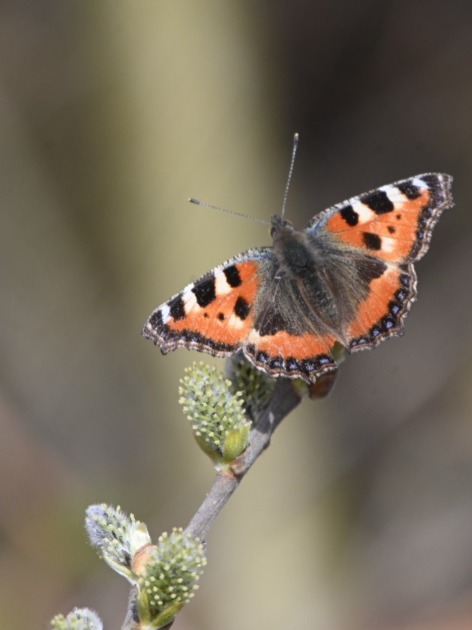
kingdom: Animalia
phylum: Arthropoda
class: Insecta
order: Lepidoptera
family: Nymphalidae
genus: Aglais
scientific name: Aglais urticae
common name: Nældens takvinge
